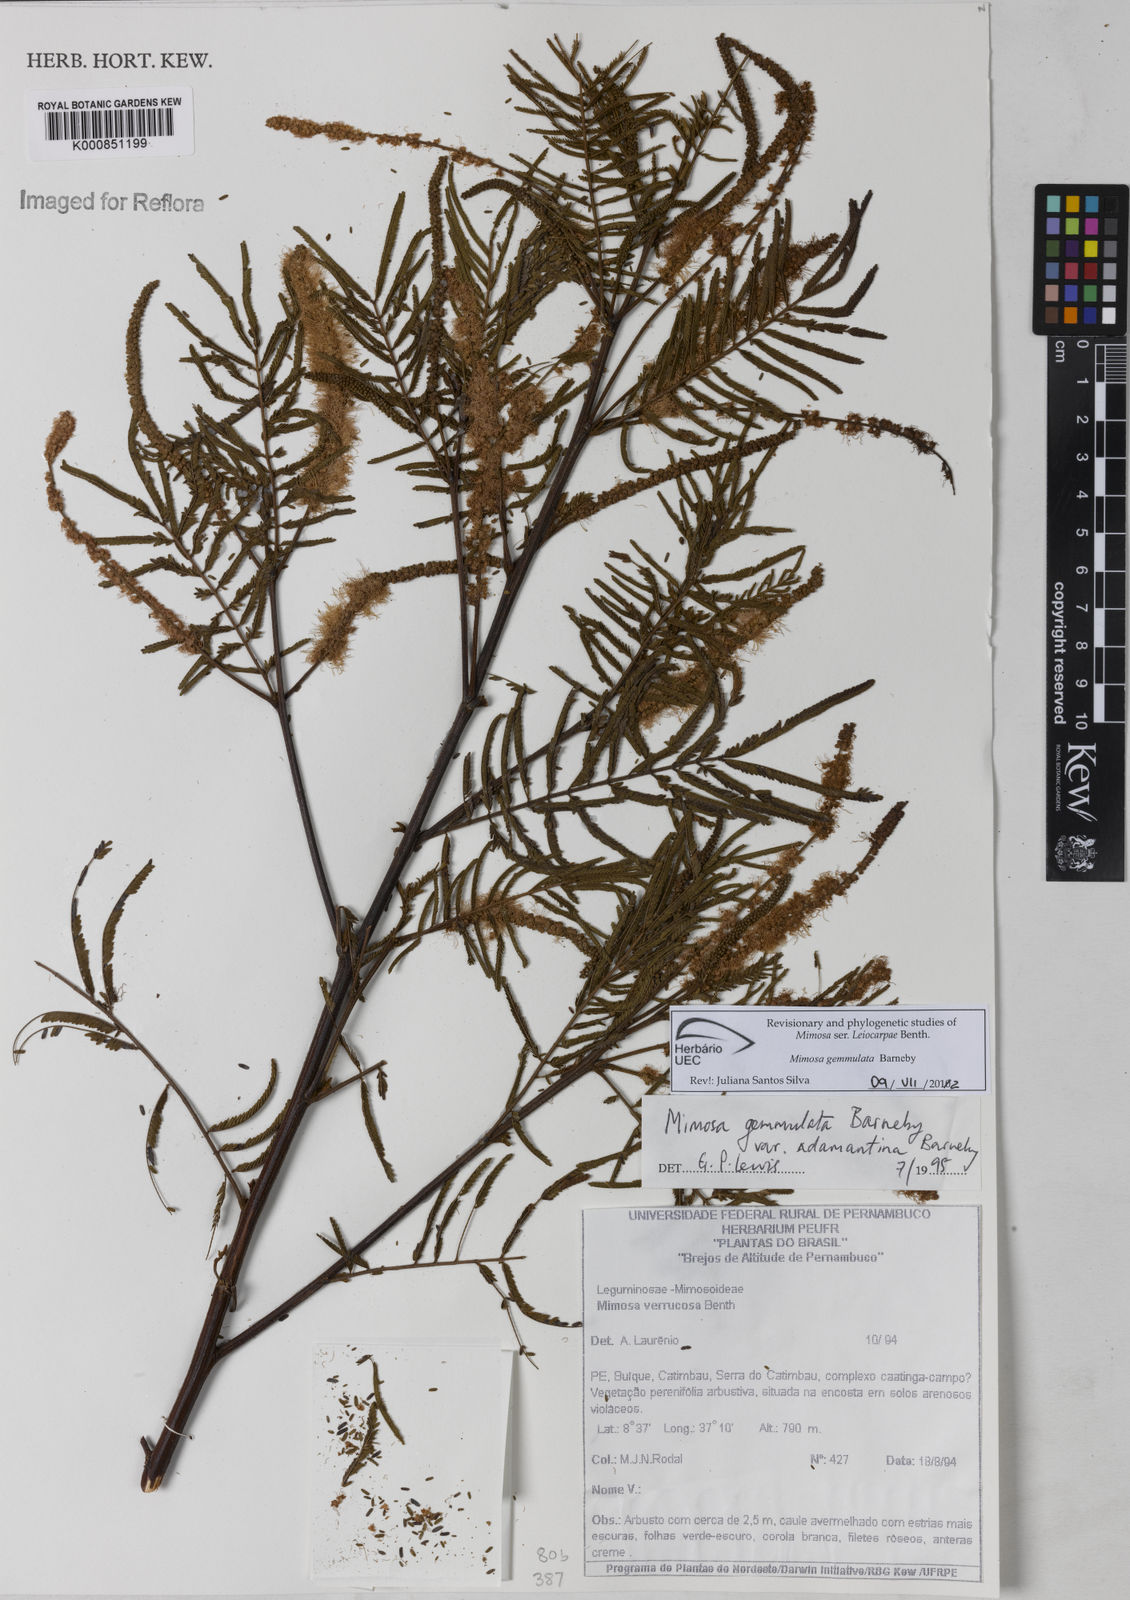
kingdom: Plantae
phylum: Tracheophyta
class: Magnoliopsida
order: Fabales
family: Fabaceae
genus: Mimosa
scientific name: Mimosa gemmulata
